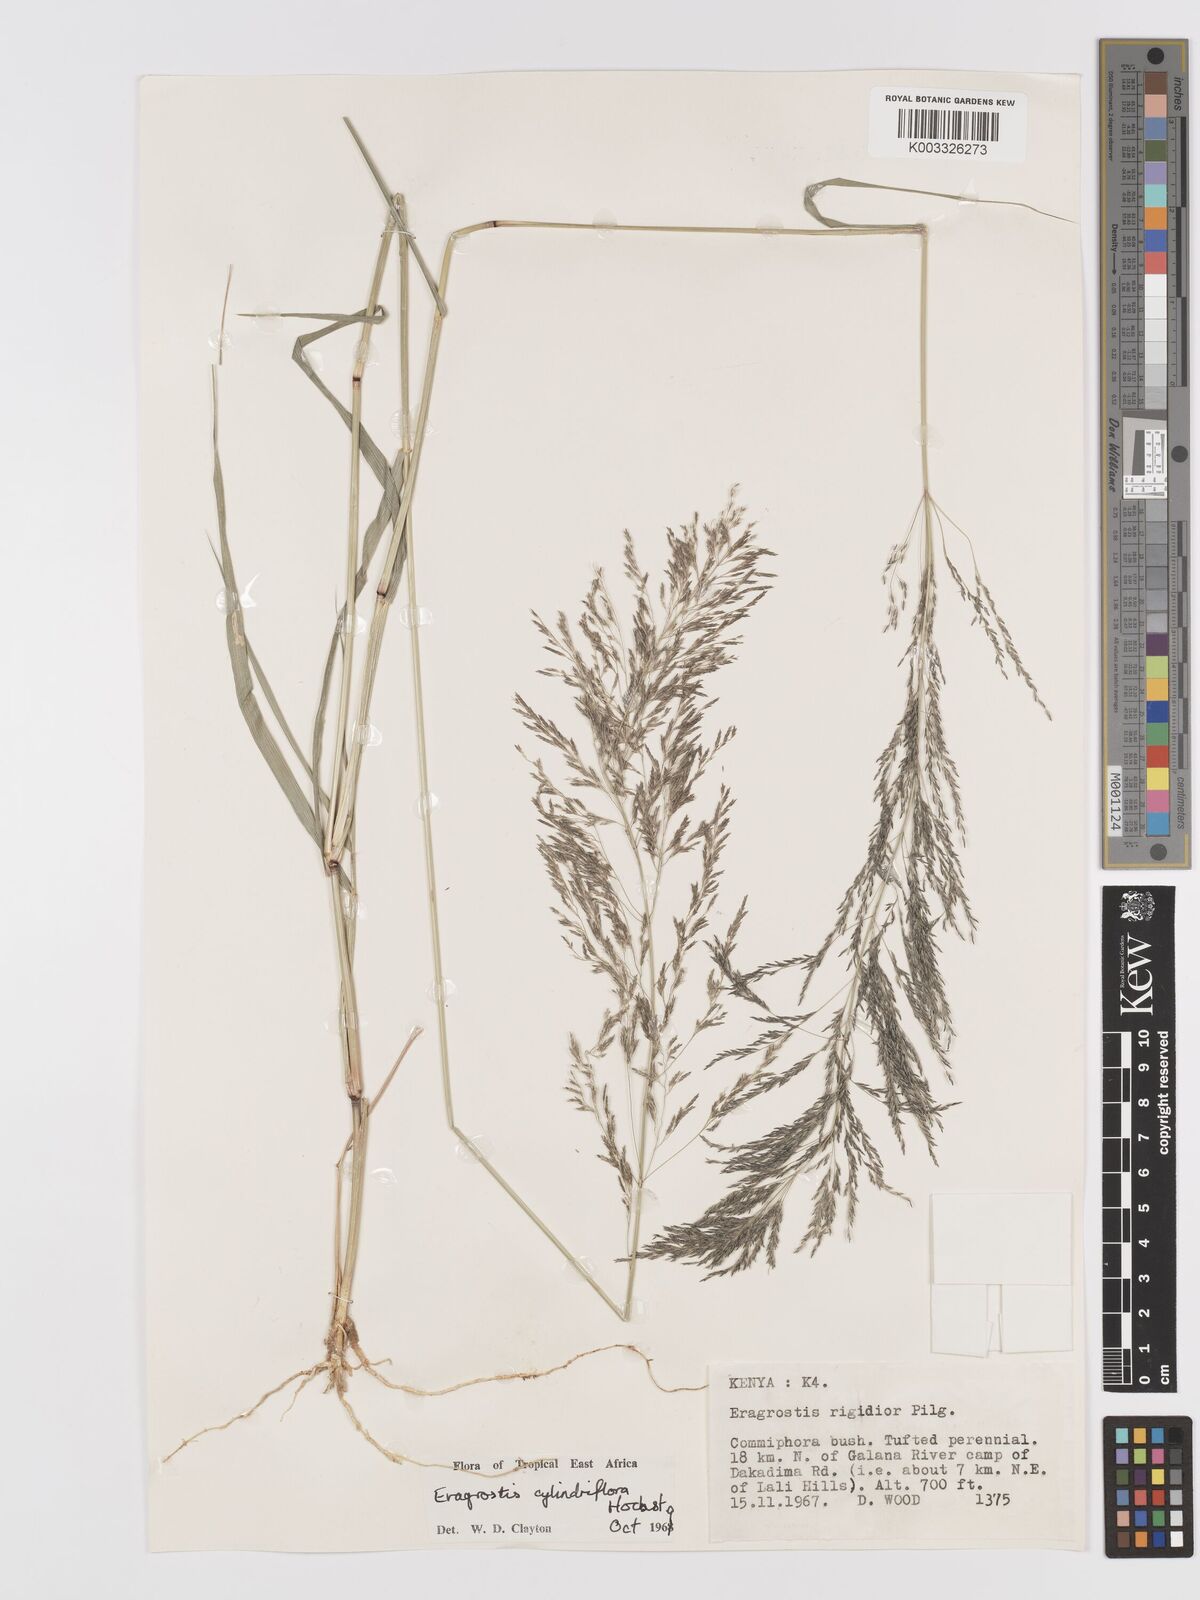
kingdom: Plantae
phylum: Tracheophyta
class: Liliopsida
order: Poales
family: Poaceae
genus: Eragrostis
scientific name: Eragrostis cylindriflora
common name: Cylinderflower lovegrass
